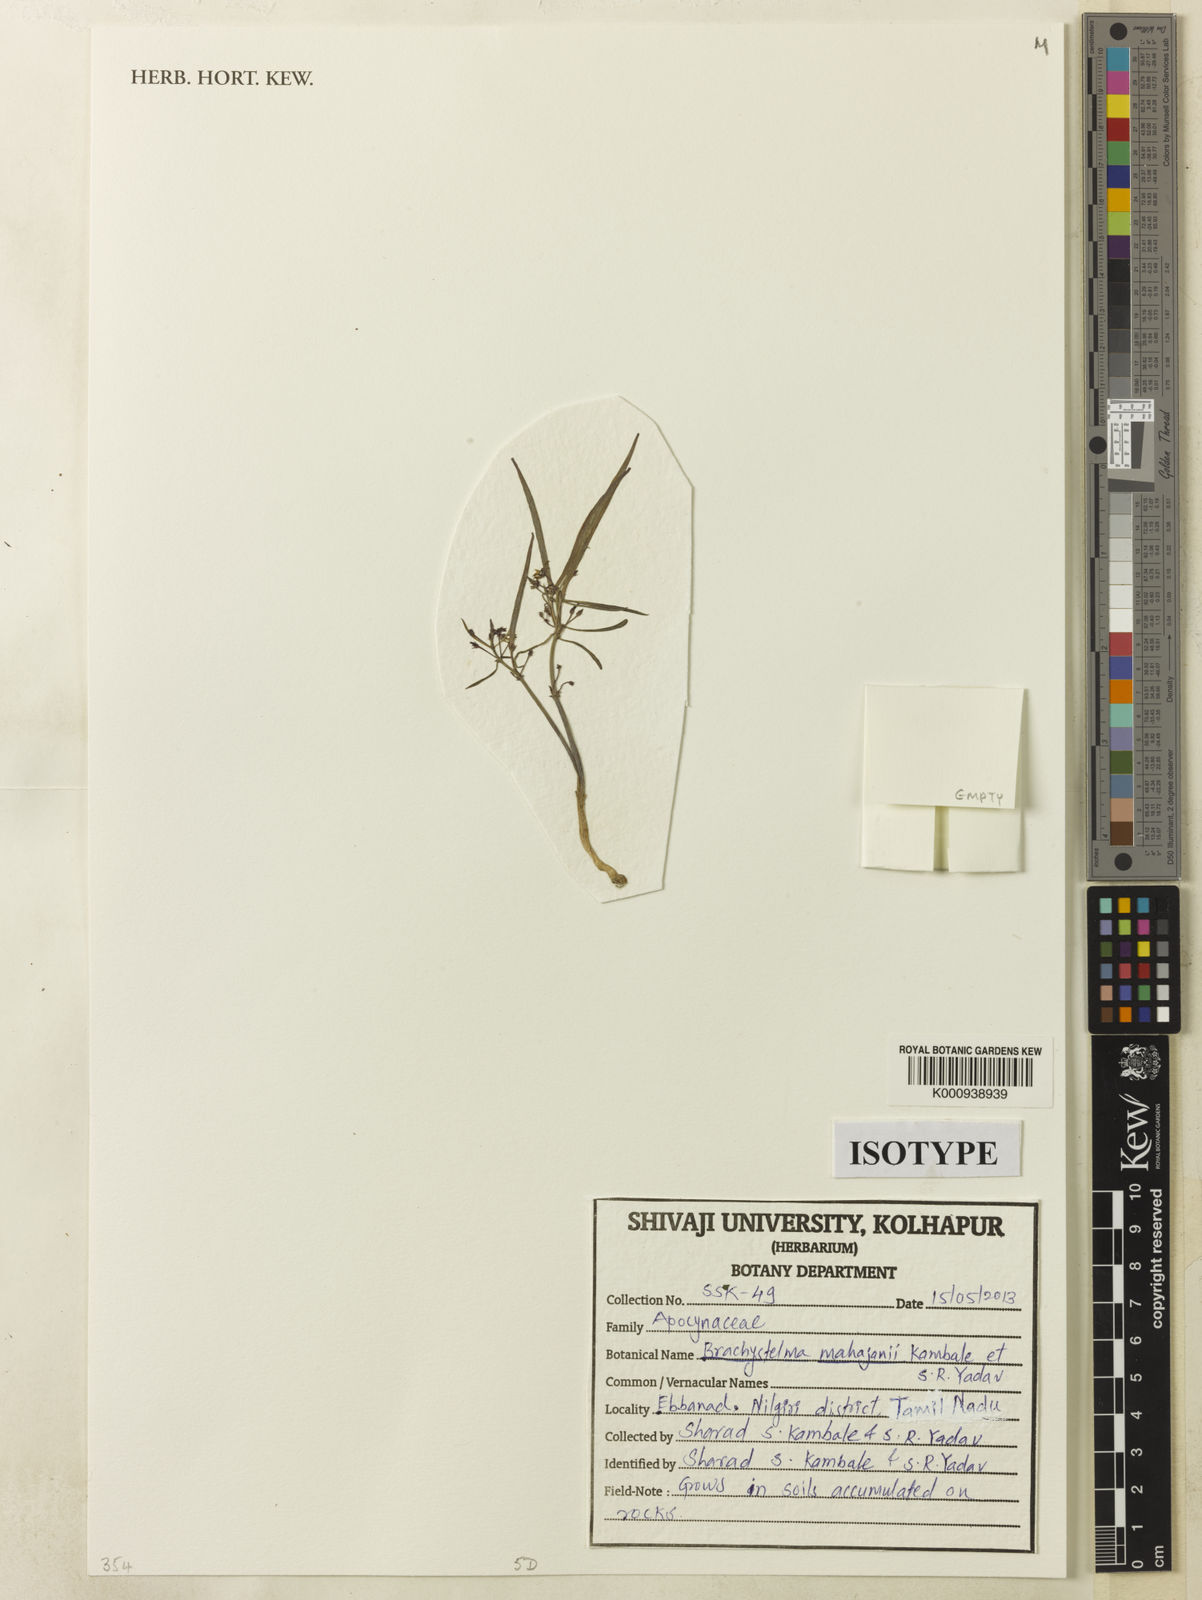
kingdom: Plantae
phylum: Tracheophyta
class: Magnoliopsida
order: Gentianales
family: Apocynaceae
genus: Ceropegia
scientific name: Ceropegia mahajanii
